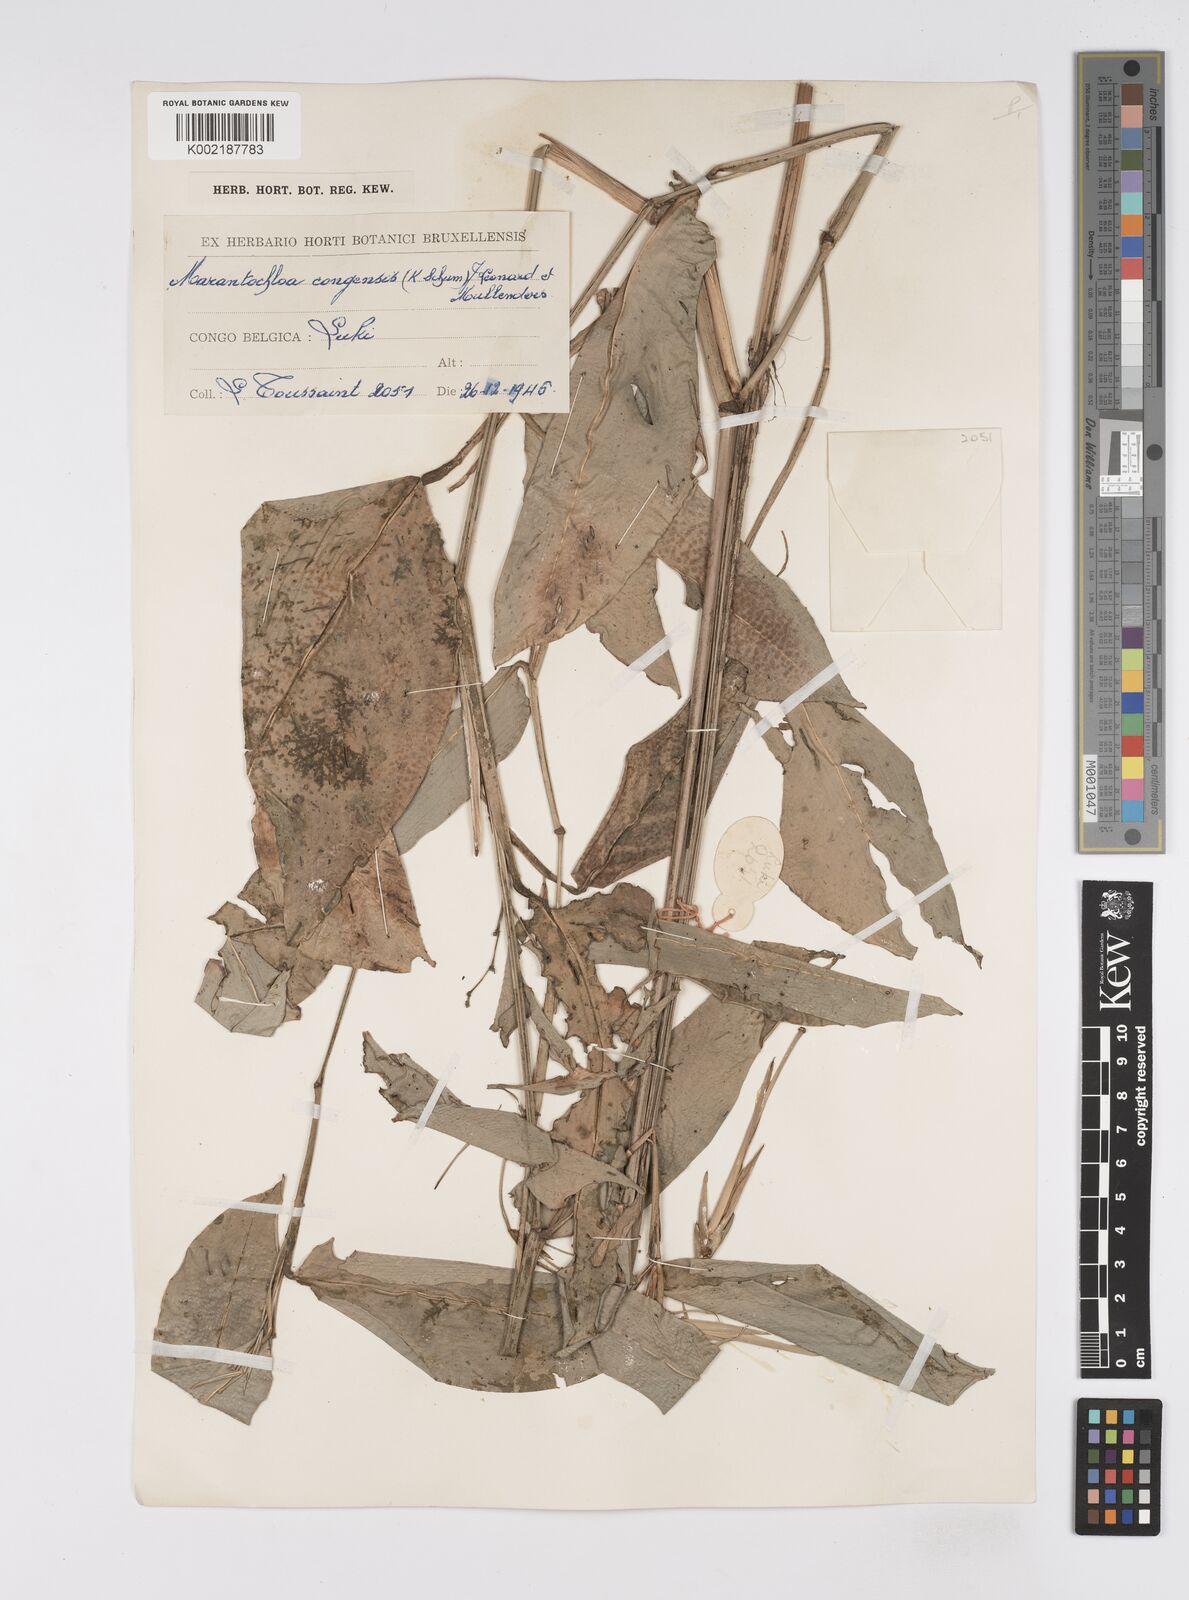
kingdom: Plantae
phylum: Tracheophyta
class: Liliopsida
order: Zingiberales
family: Marantaceae
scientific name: Marantaceae
